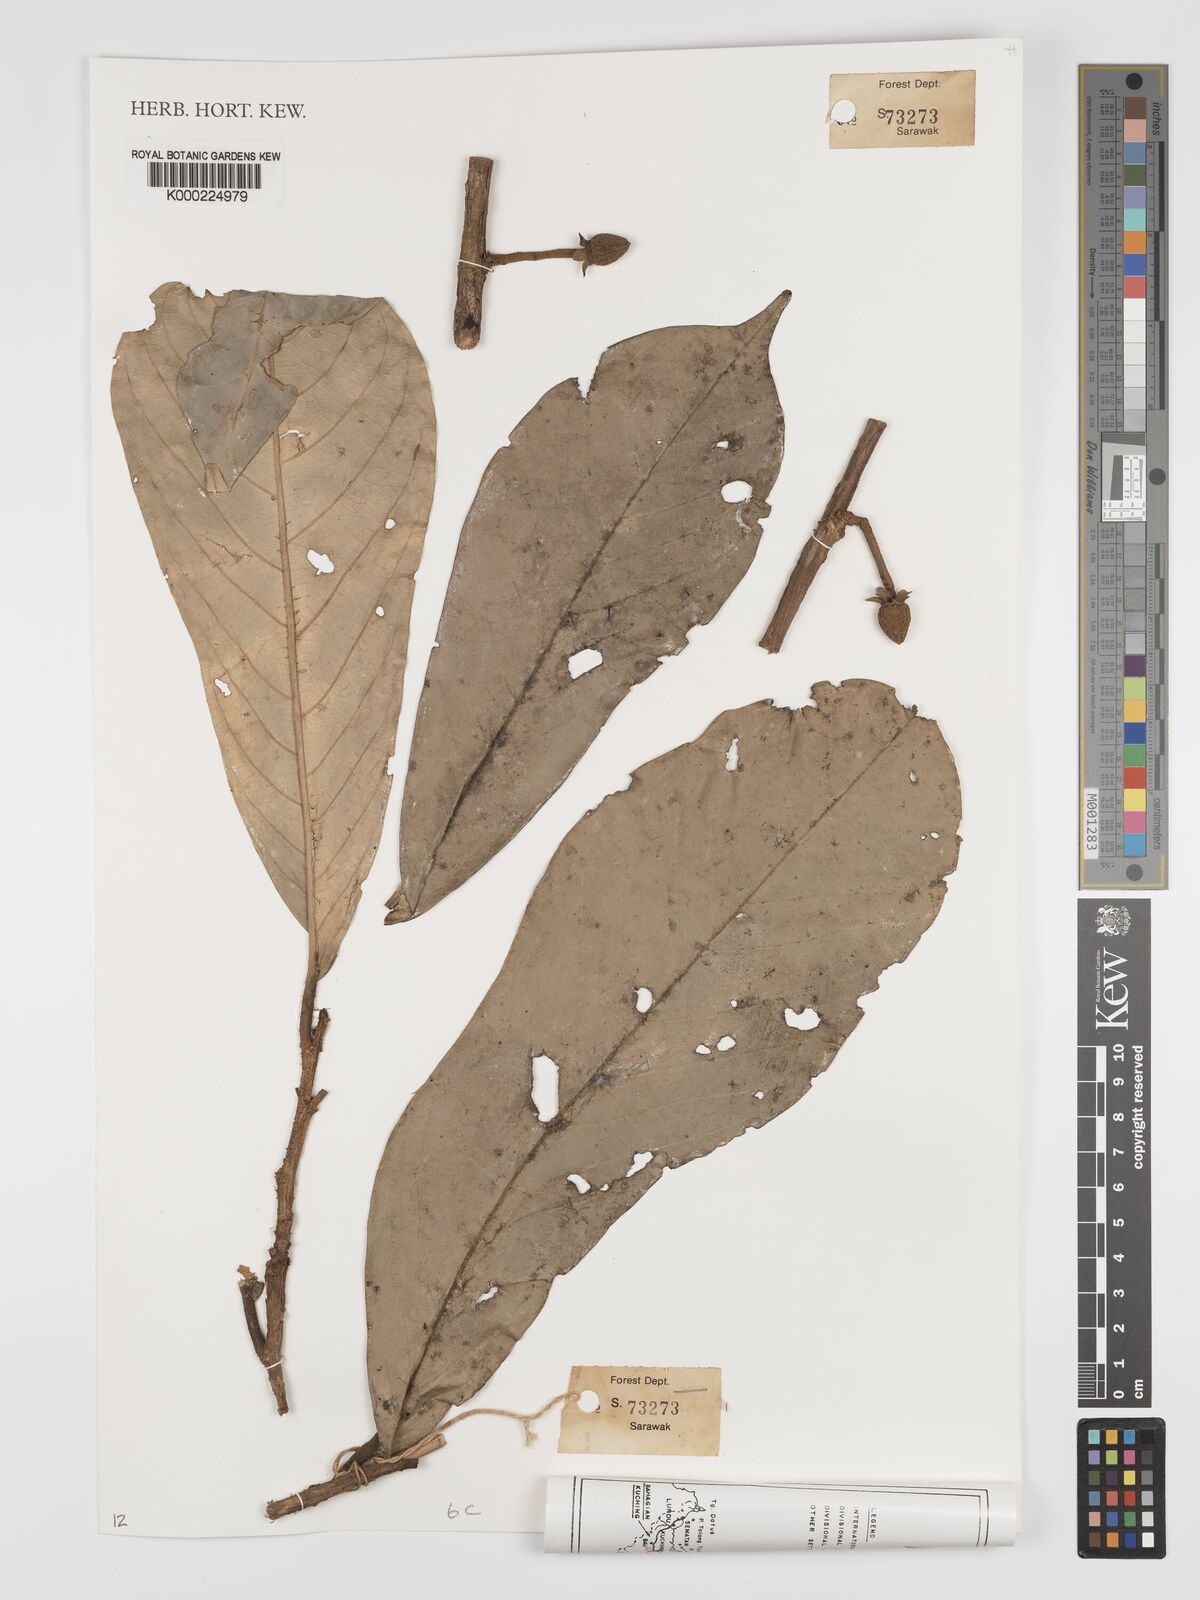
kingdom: Plantae
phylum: Tracheophyta
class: Magnoliopsida
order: Malvales
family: Dipterocarpaceae
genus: Vatica
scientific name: Vatica sarawakensis
